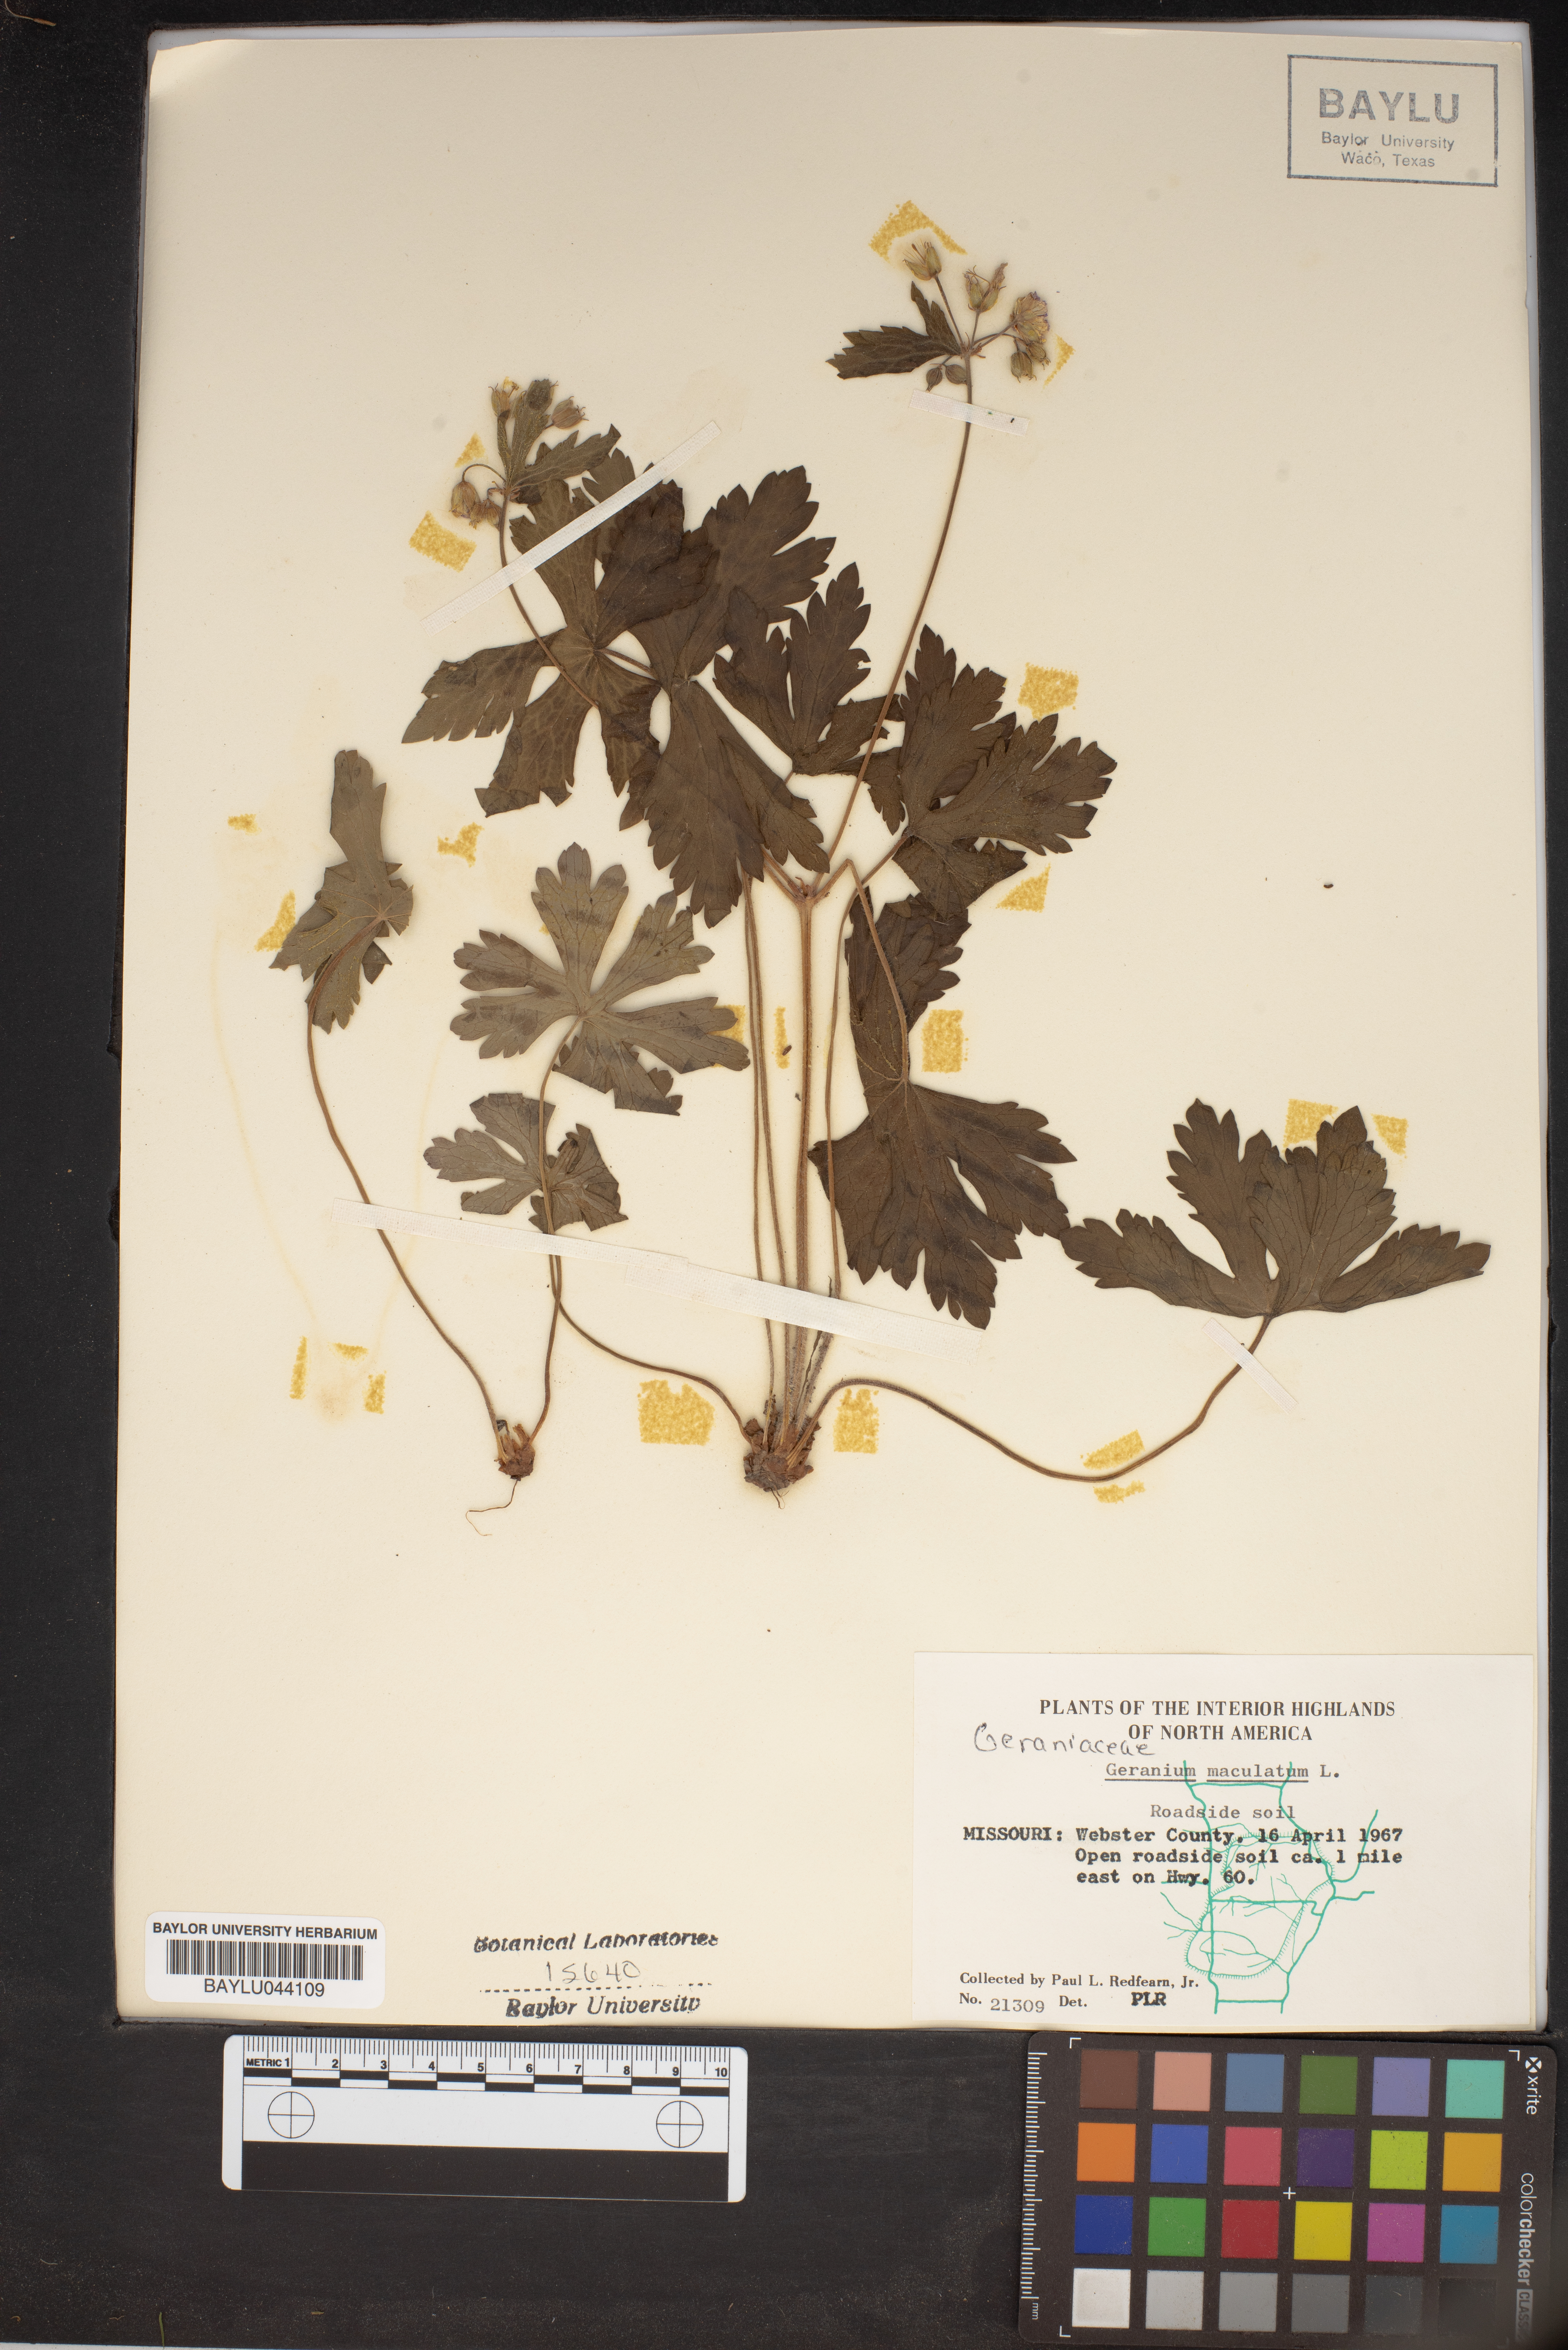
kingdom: Plantae
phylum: Tracheophyta
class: Magnoliopsida
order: Geraniales
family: Geraniaceae
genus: Geranium
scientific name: Geranium maculatum
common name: Spotted geranium
